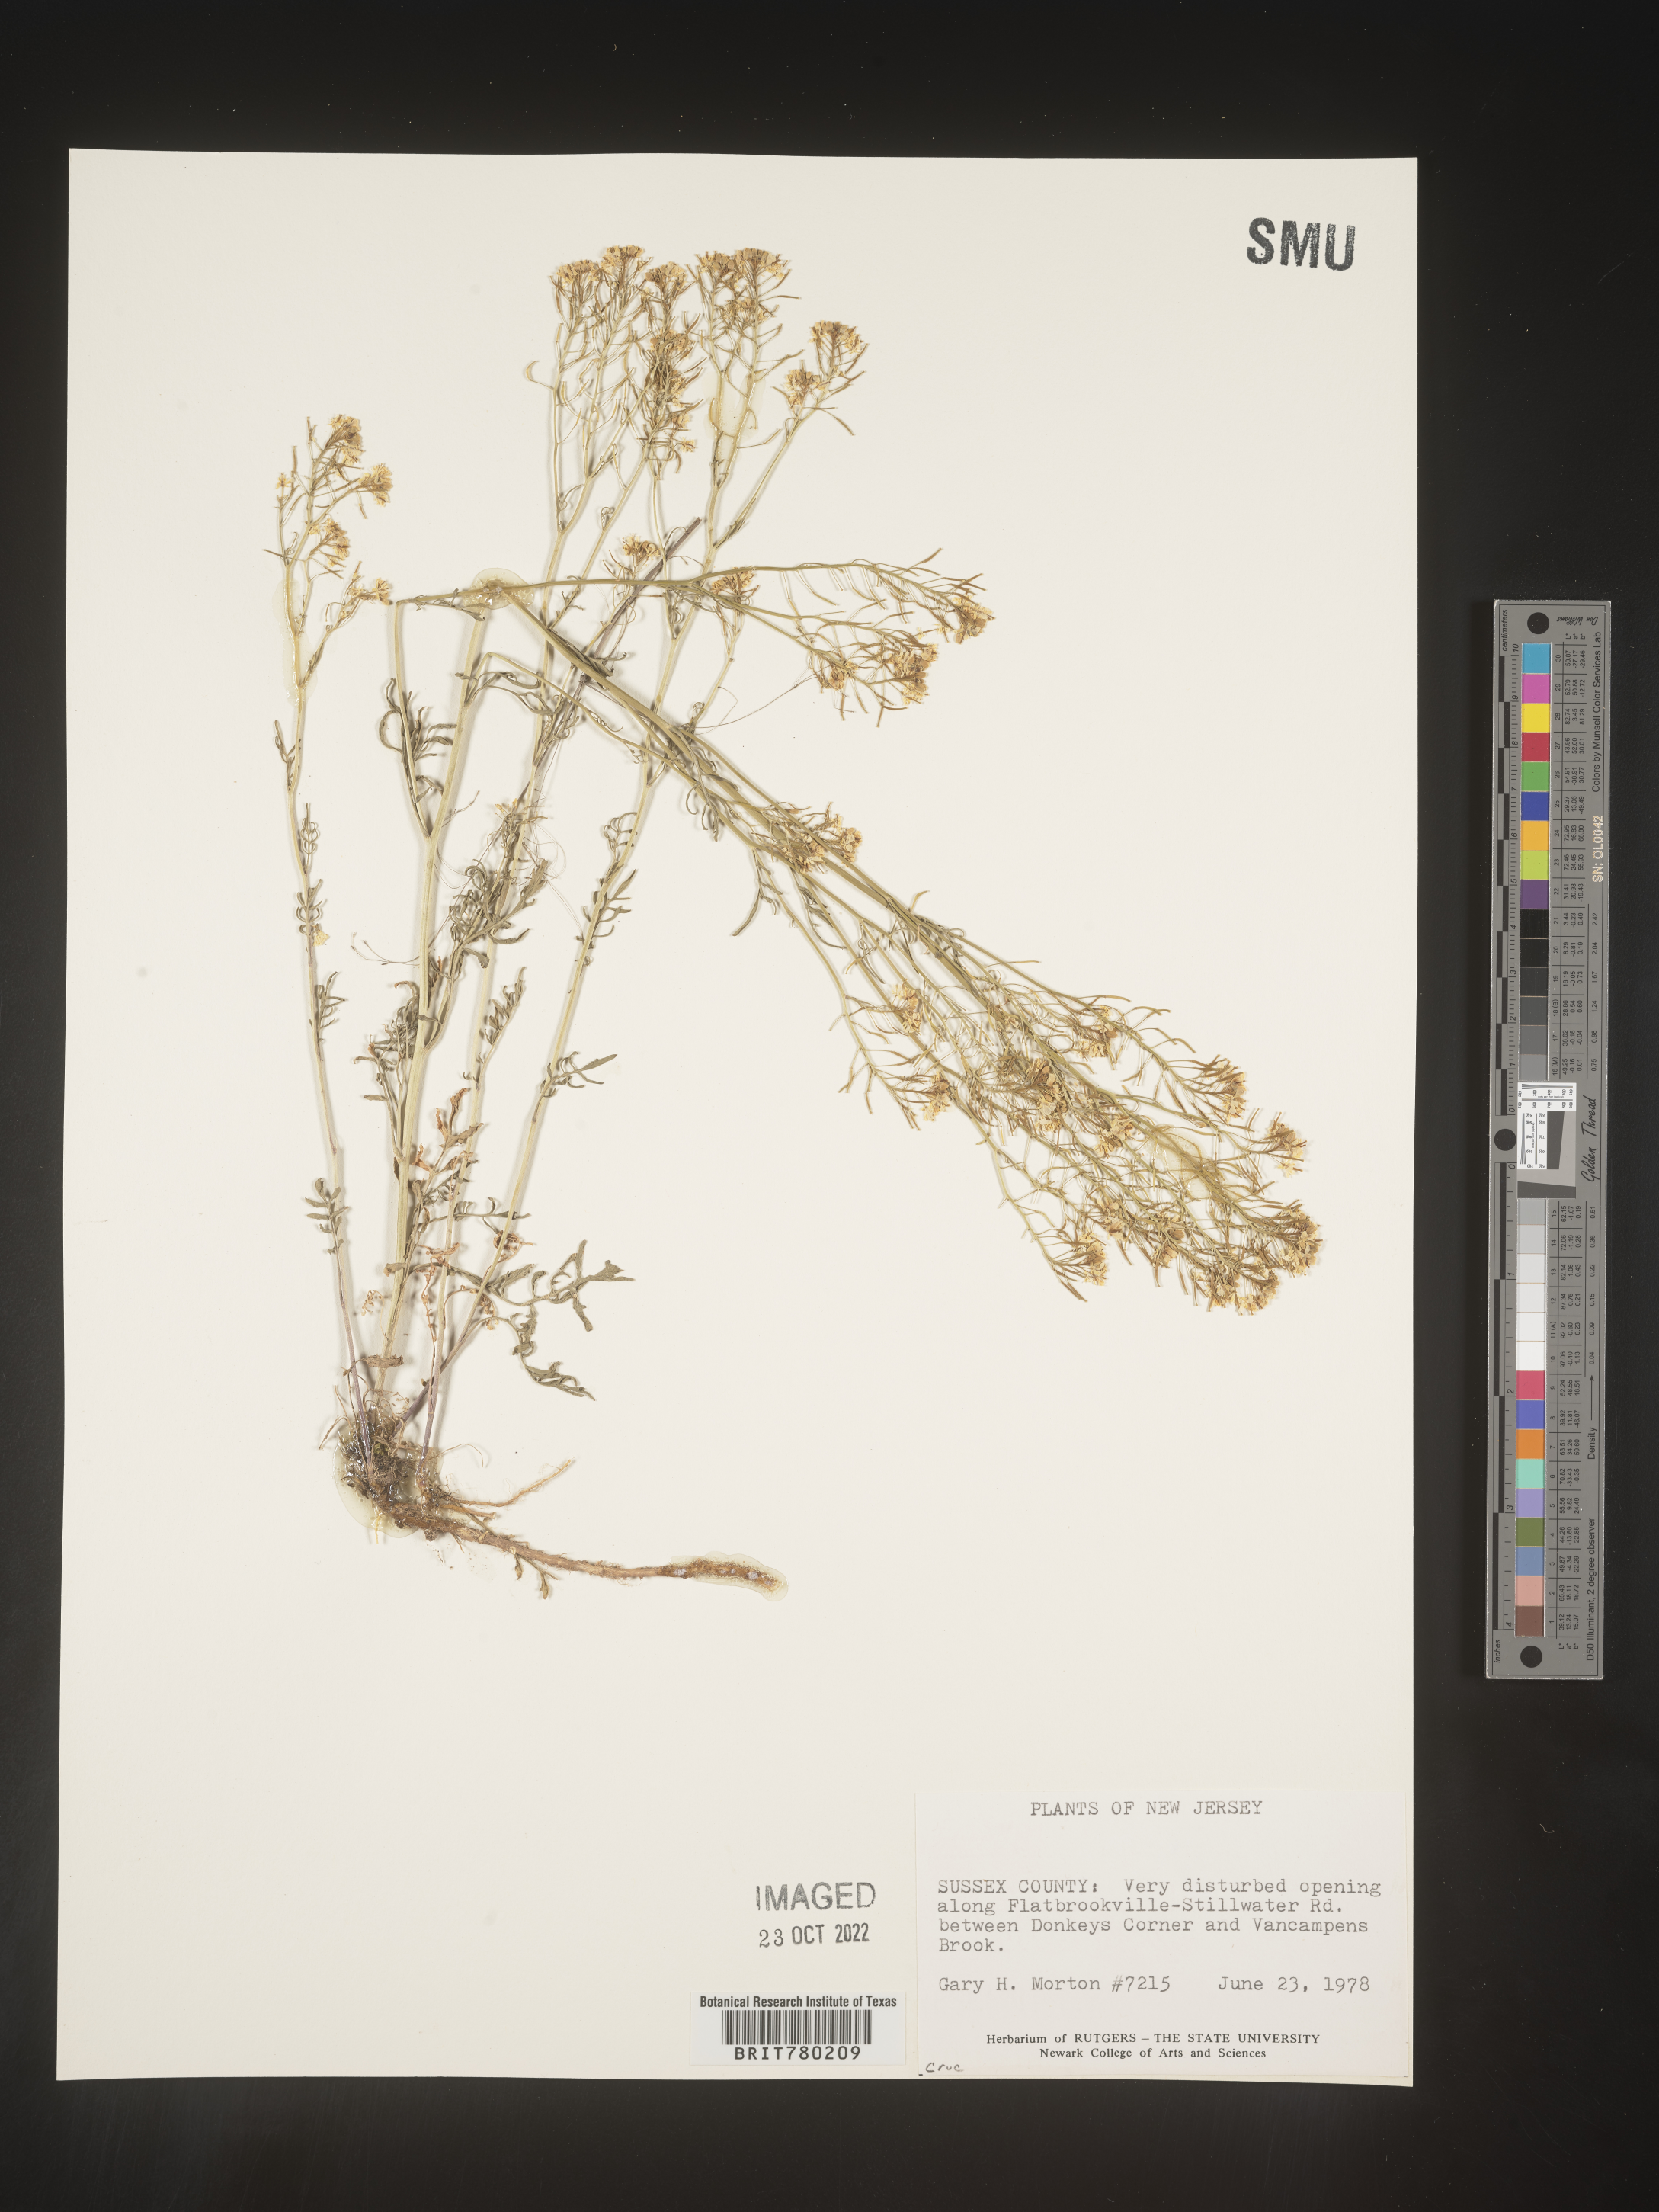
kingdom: Plantae
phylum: Tracheophyta
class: Magnoliopsida
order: Brassicales
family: Brassicaceae
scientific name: Brassicaceae
